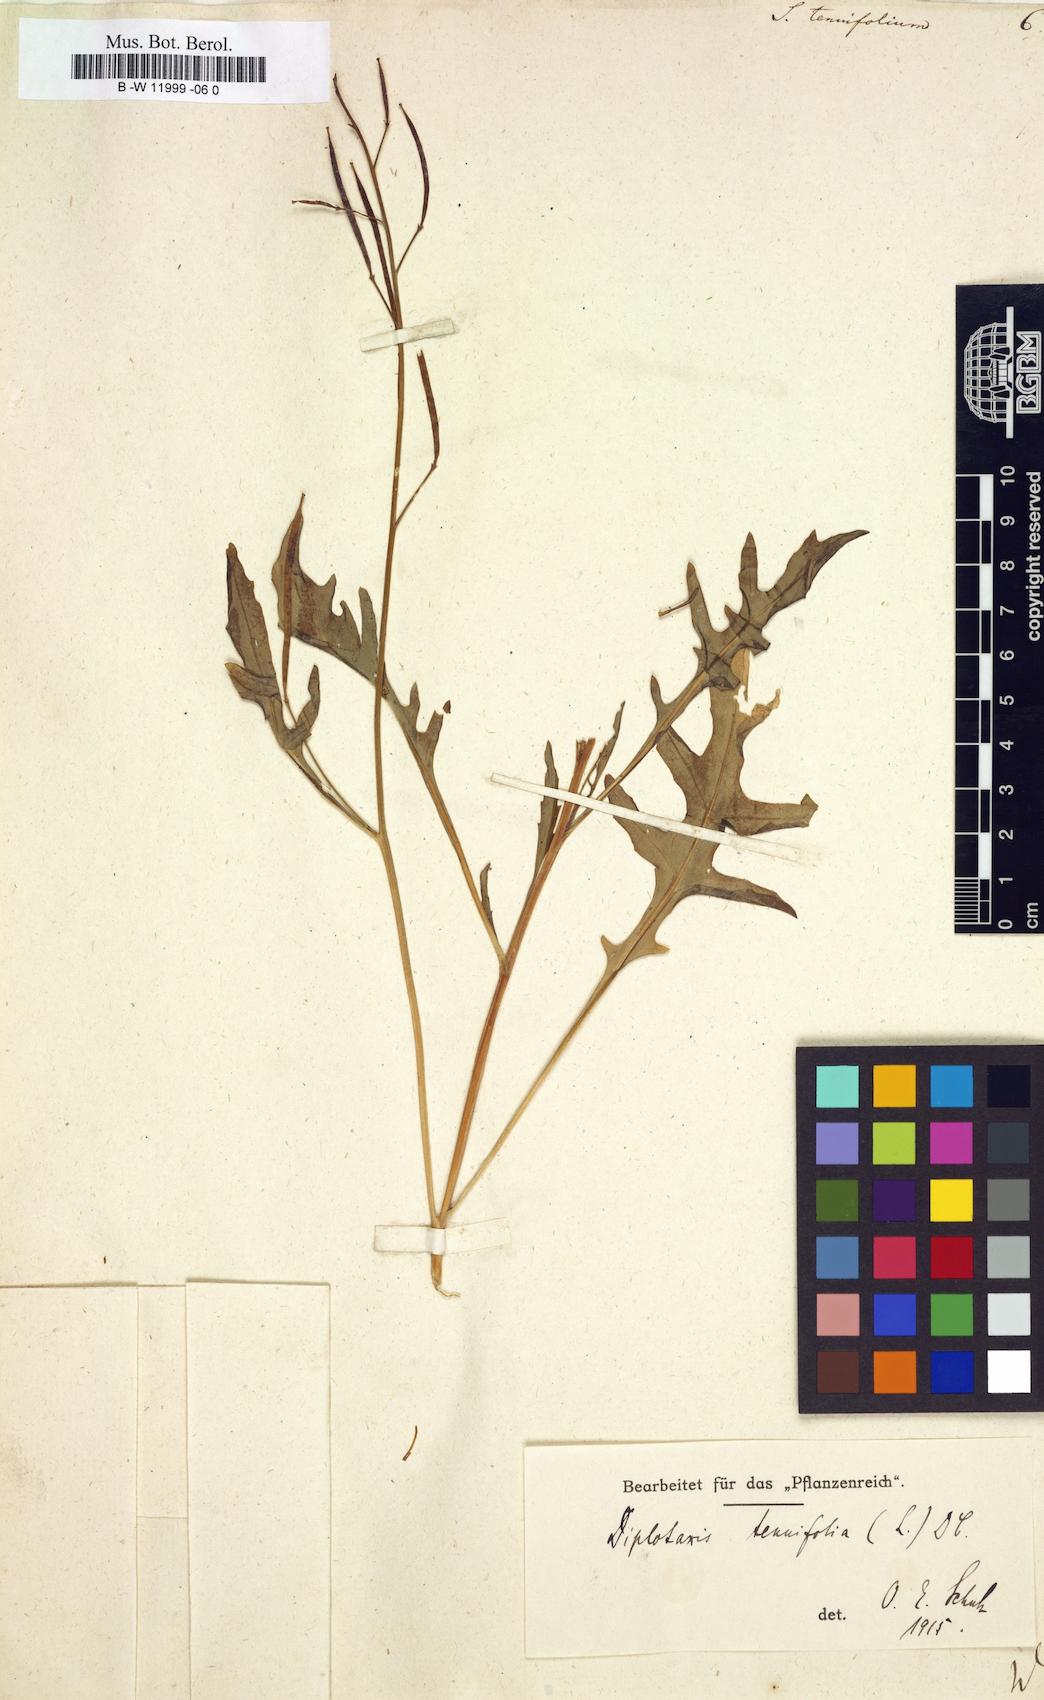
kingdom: Plantae
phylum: Tracheophyta
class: Magnoliopsida
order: Brassicales
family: Brassicaceae
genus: Sisymbrium
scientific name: Sisymbrium tenuifolium
